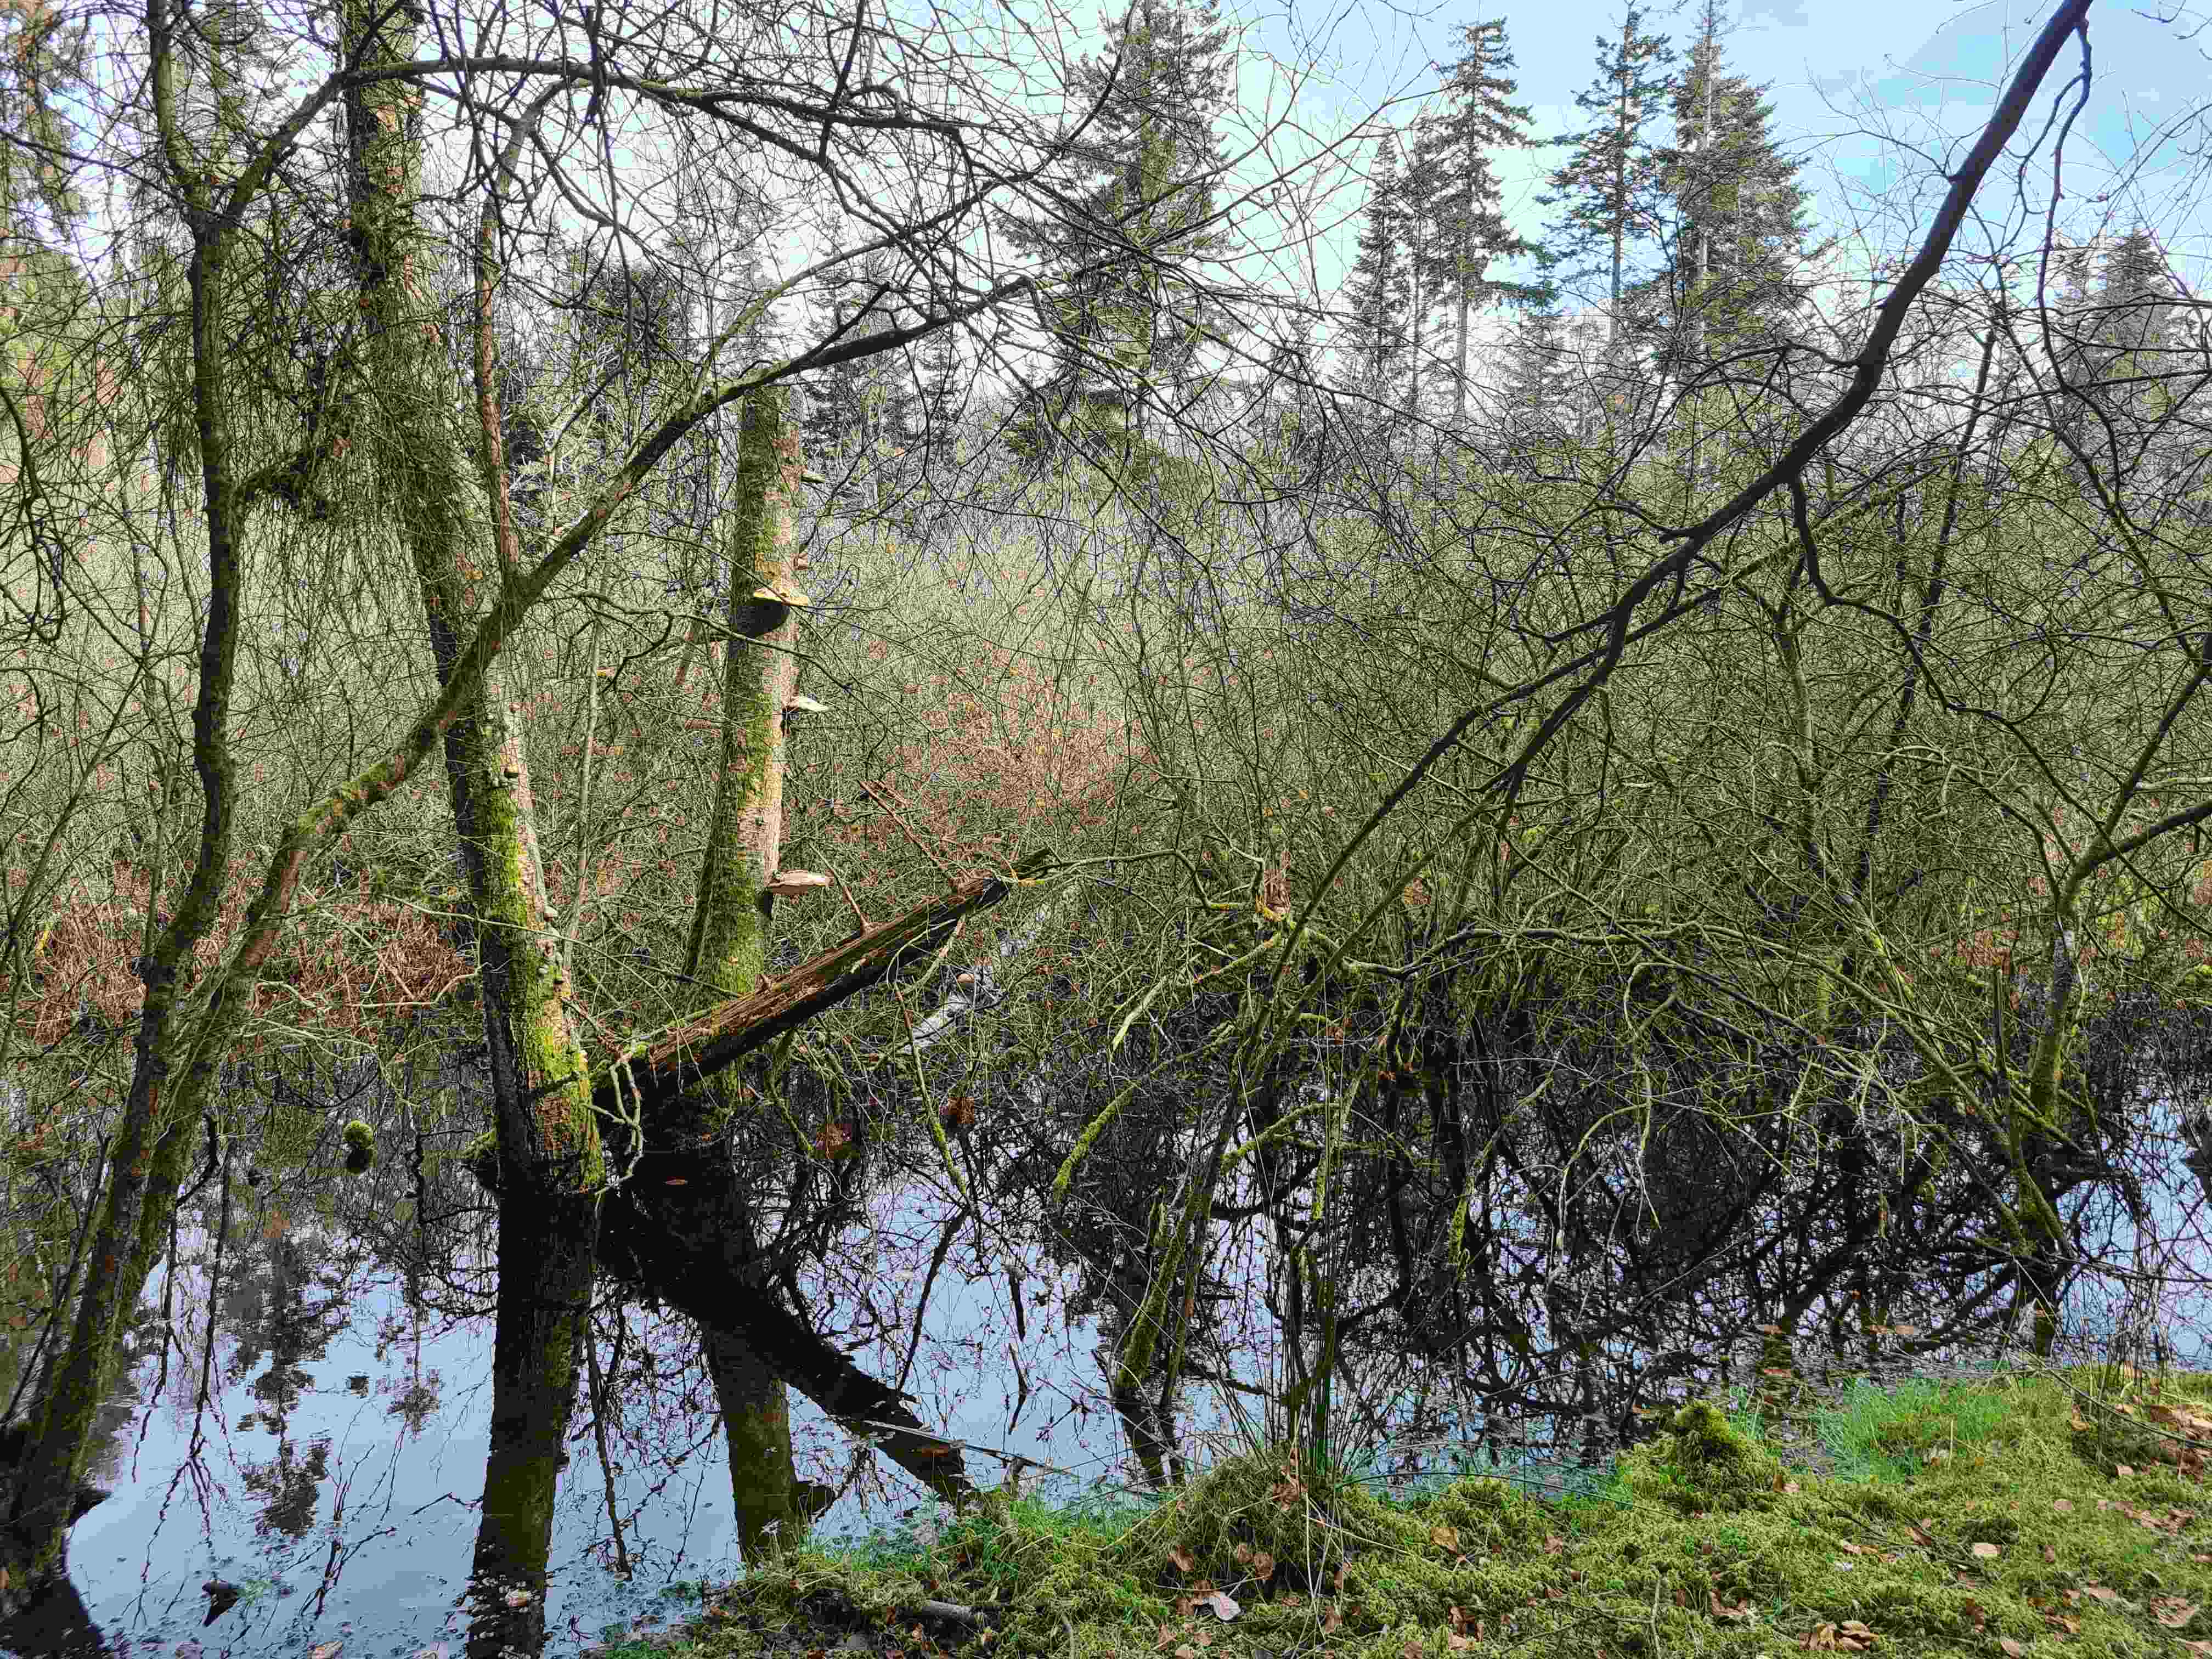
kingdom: Fungi
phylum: Basidiomycota
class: Agaricomycetes
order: Polyporales
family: Fomitopsidaceae
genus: Fomitopsis
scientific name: Fomitopsis betulina
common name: birkeporesvamp
